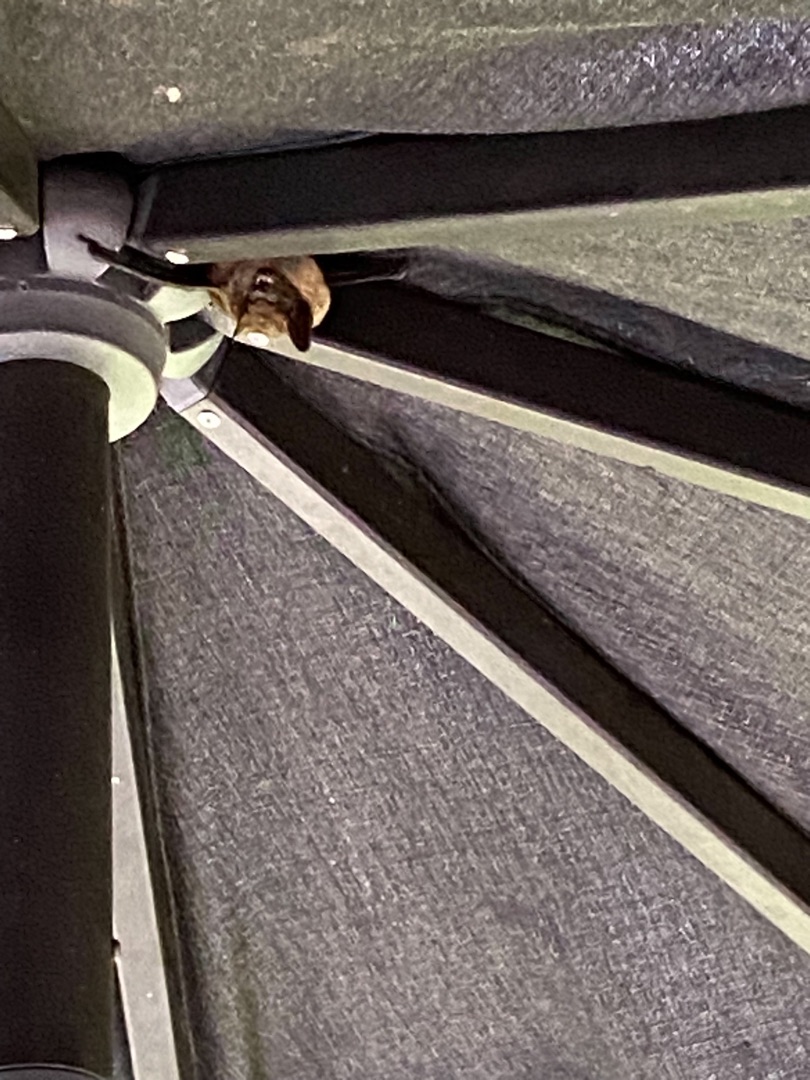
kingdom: Animalia
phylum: Chordata
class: Mammalia
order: Chiroptera
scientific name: Chiroptera
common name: Flagermus
